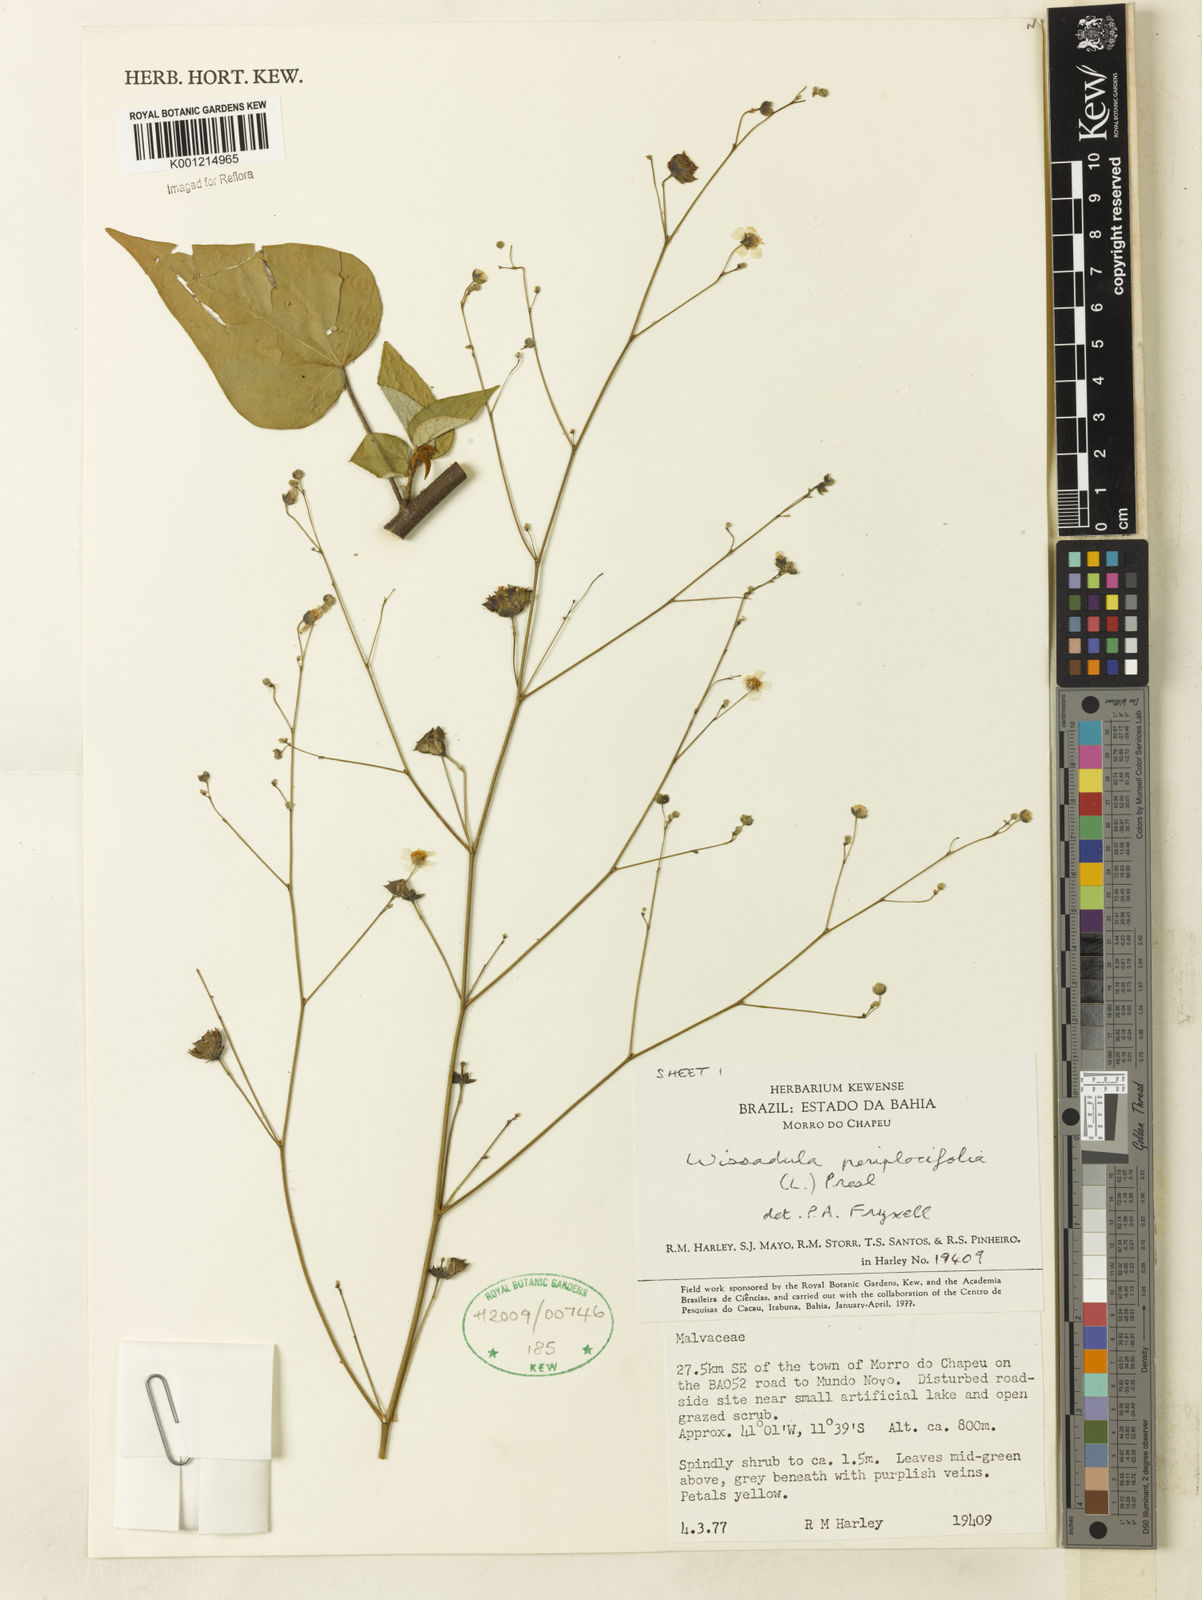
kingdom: Plantae
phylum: Tracheophyta
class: Magnoliopsida
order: Malvales
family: Malvaceae
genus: Wissadula
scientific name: Wissadula periplocifolia
